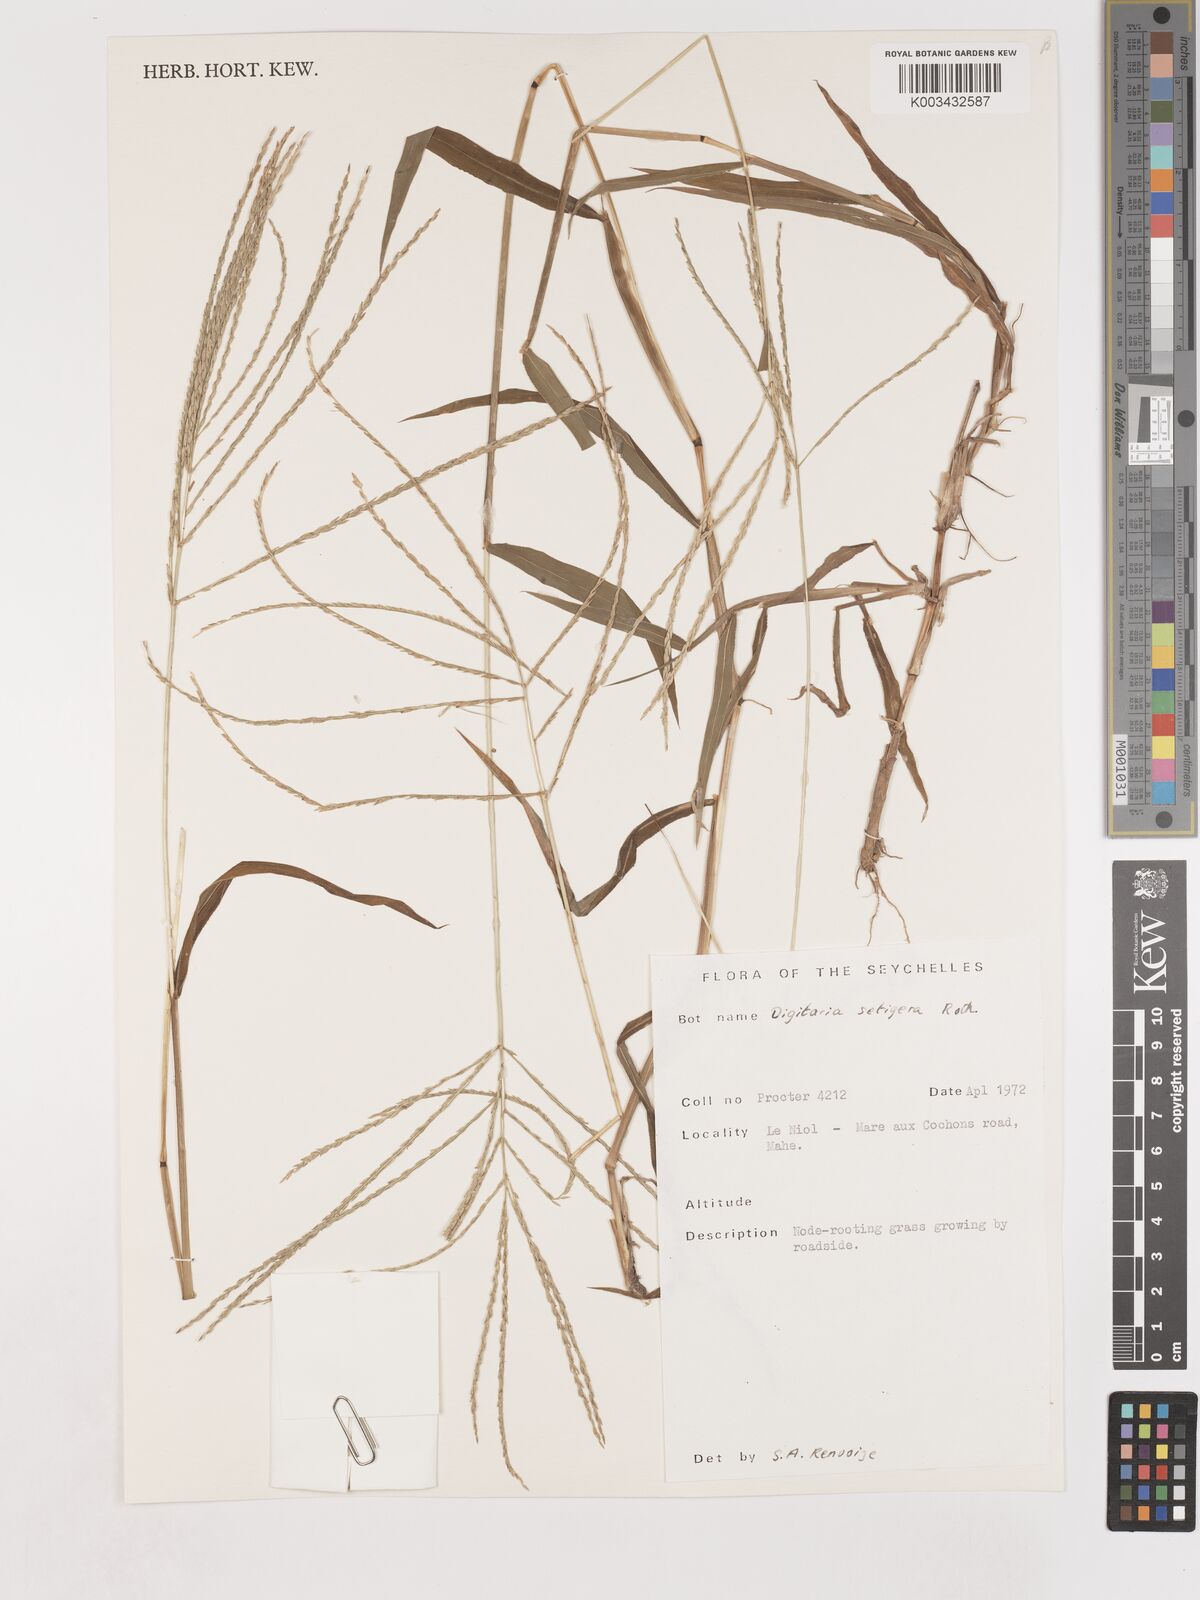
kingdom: Plantae
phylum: Tracheophyta
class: Liliopsida
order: Poales
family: Poaceae
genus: Digitaria
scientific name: Digitaria setigera
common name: East indian crabgrass
